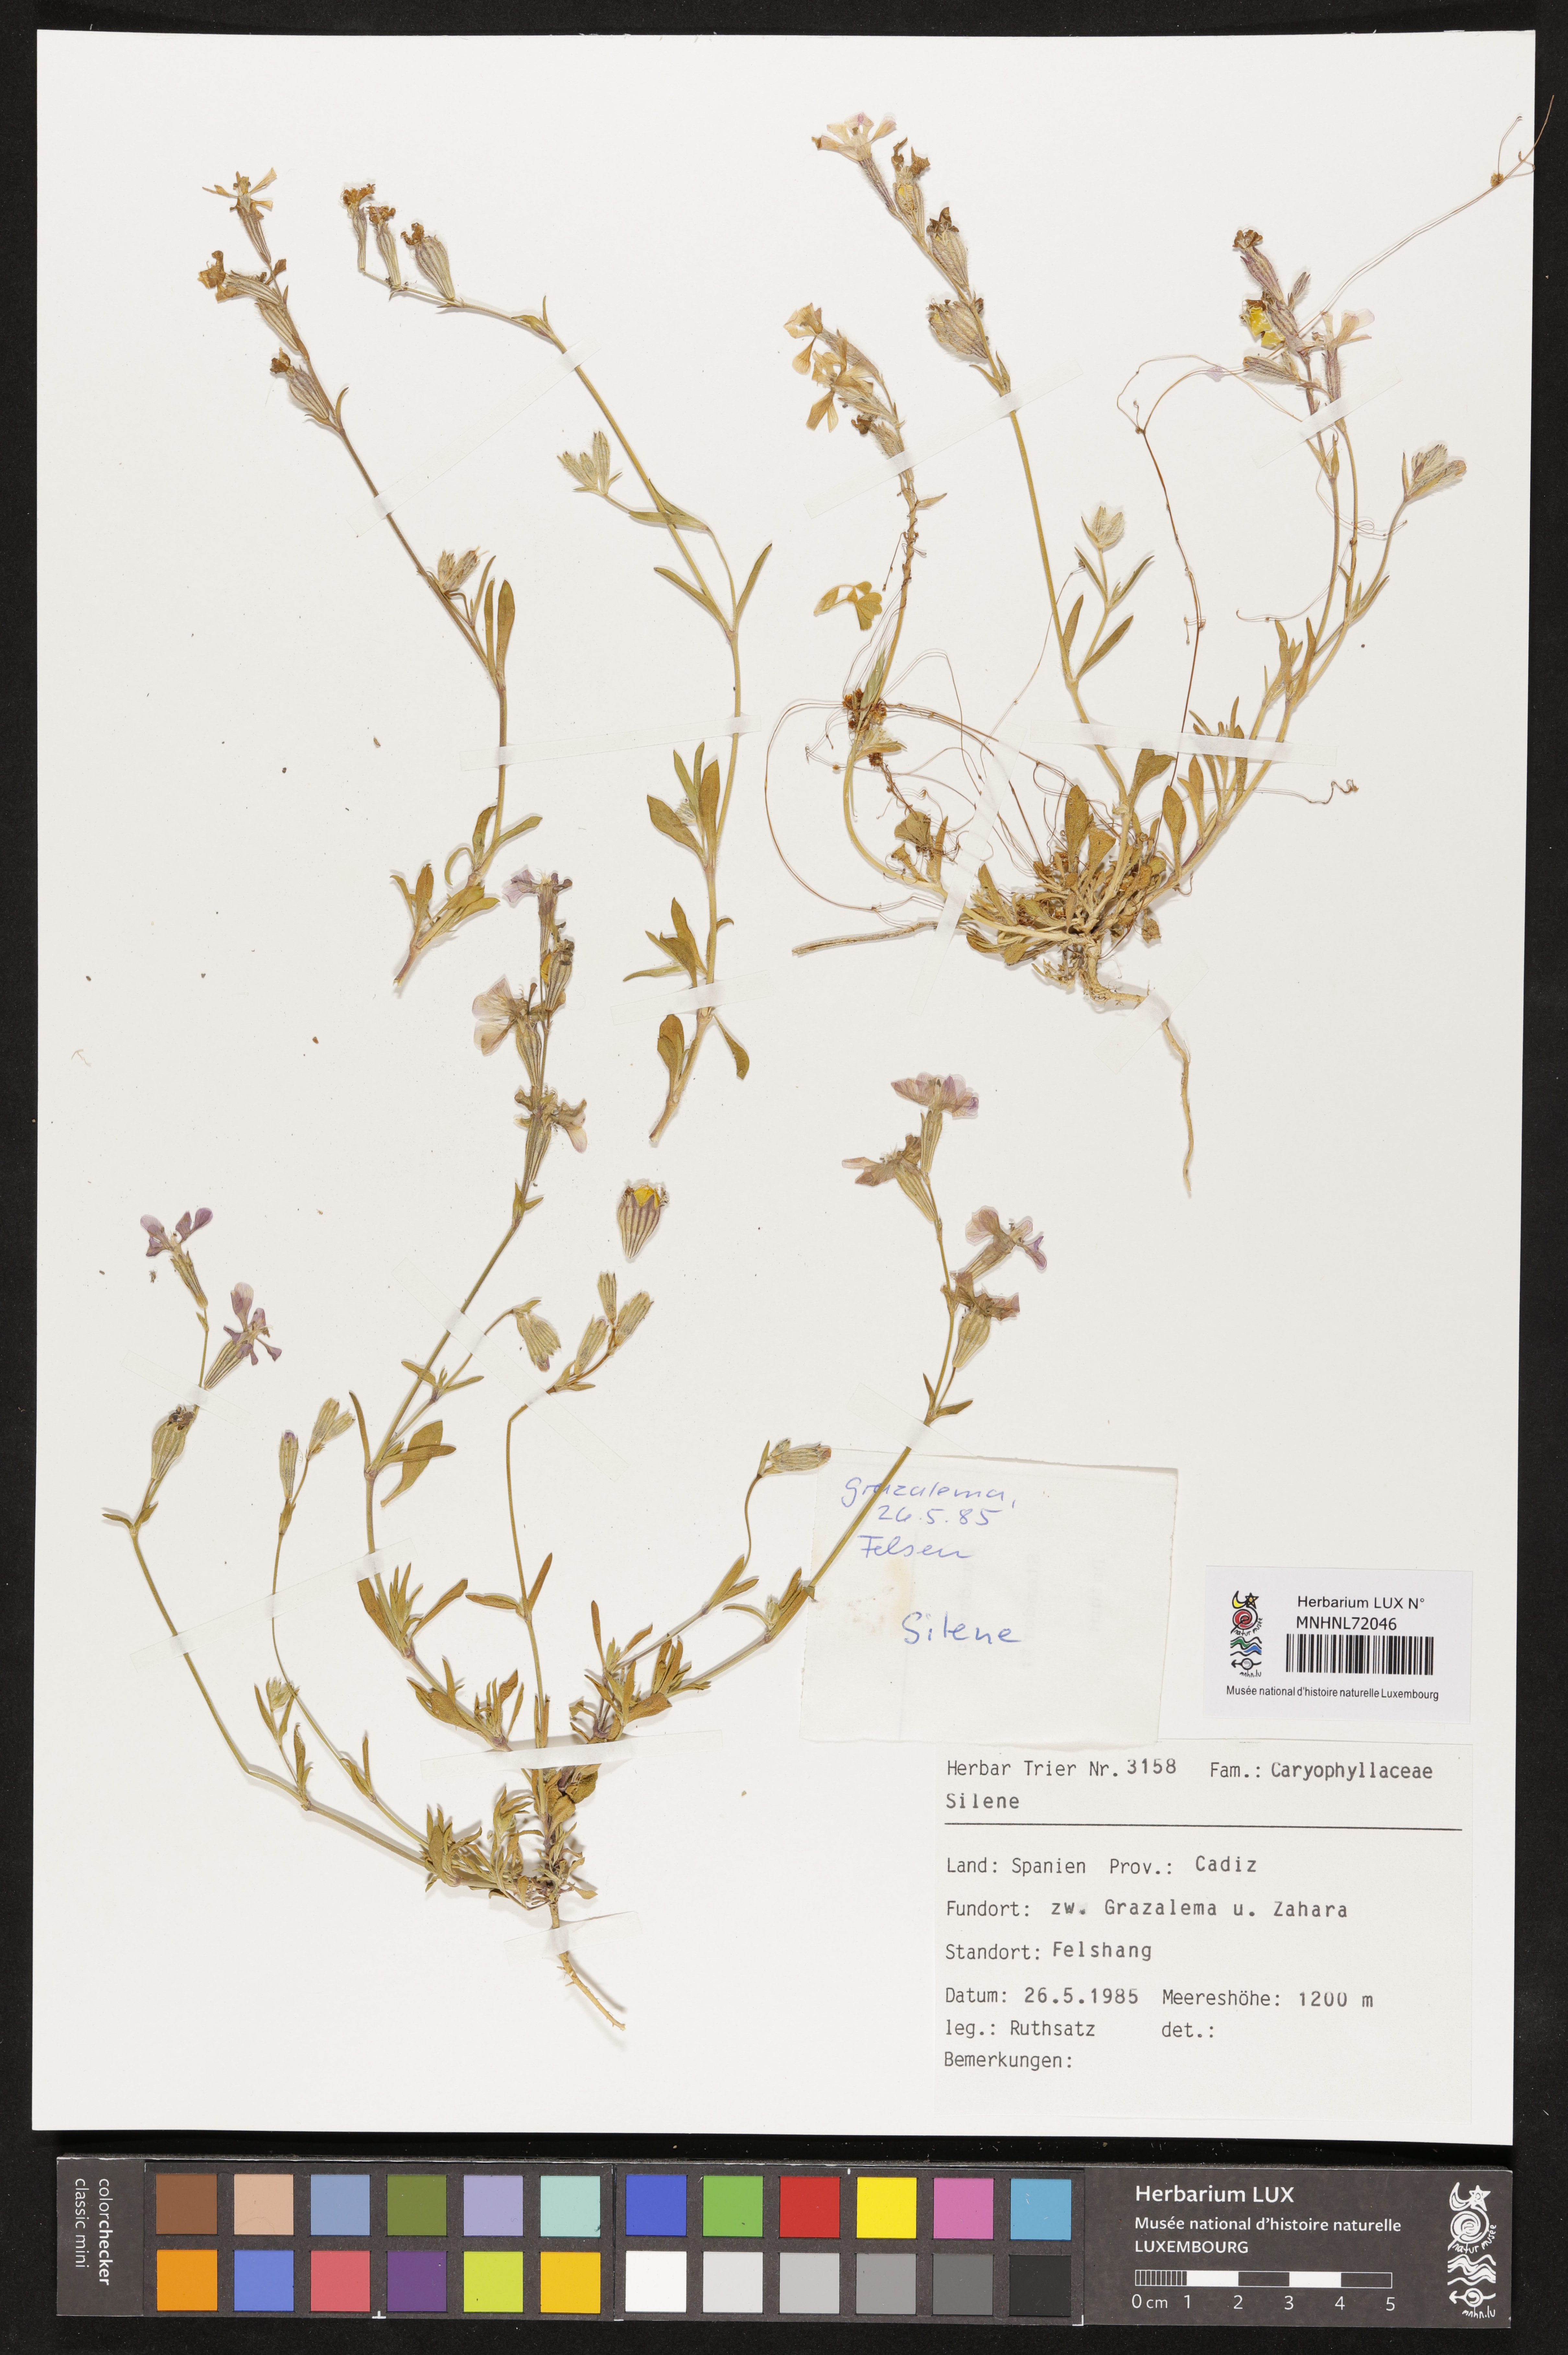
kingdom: Plantae
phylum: Tracheophyta
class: Magnoliopsida
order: Caryophyllales
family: Caryophyllaceae
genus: Silene
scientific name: Silene
